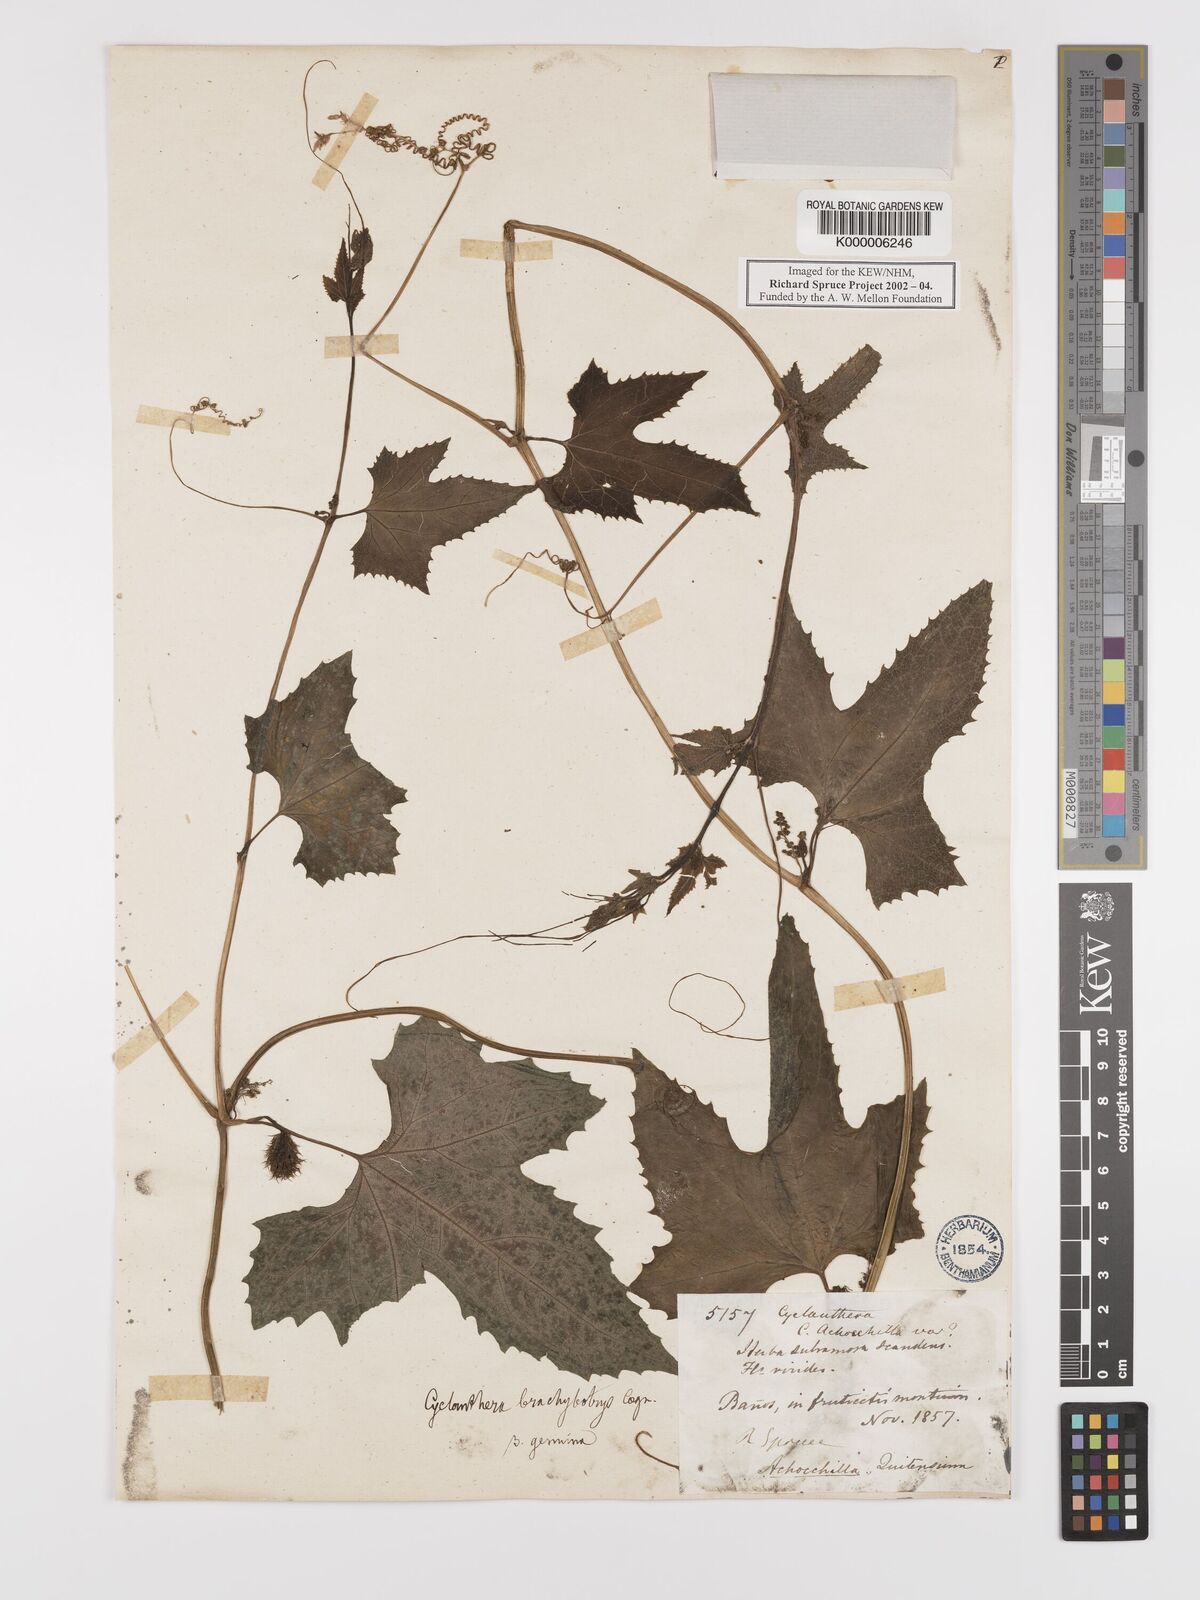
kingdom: Plantae
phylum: Tracheophyta
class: Magnoliopsida
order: Cucurbitales
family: Cucurbitaceae
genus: Cyclanthera
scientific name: Cyclanthera brachybotrys
